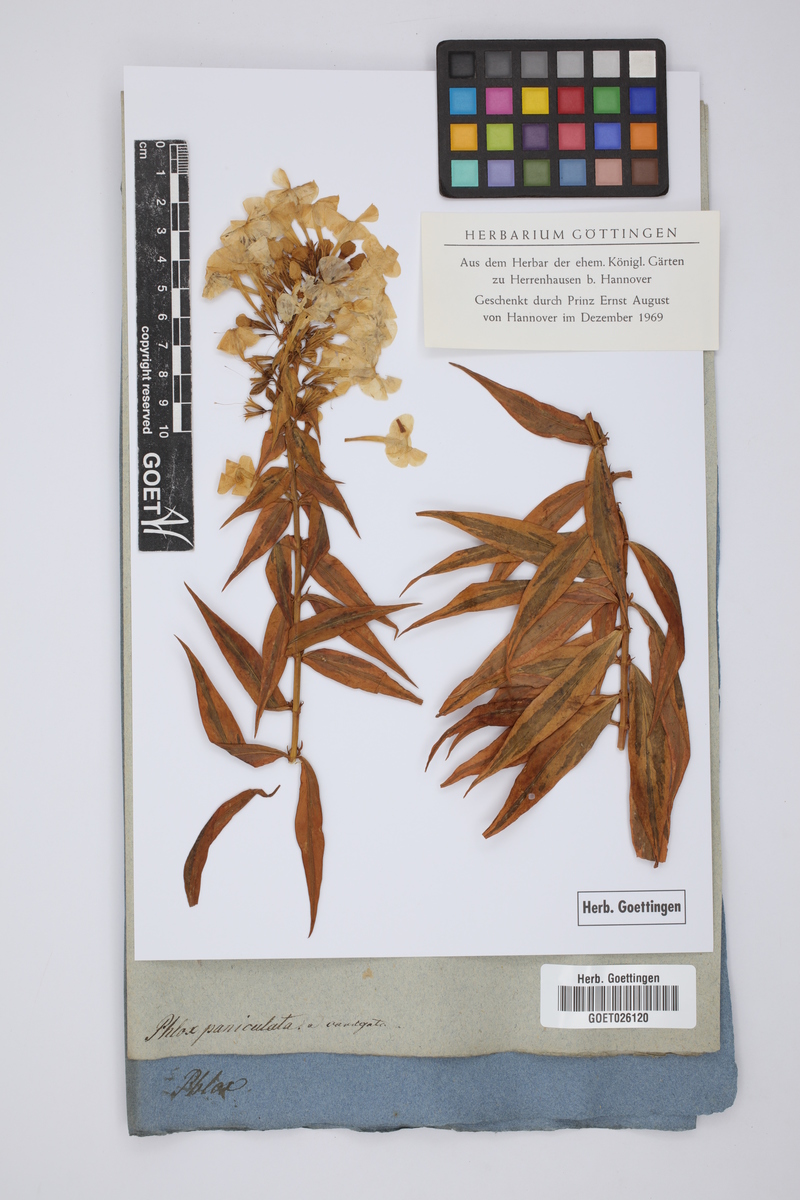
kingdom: Plantae
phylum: Tracheophyta
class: Magnoliopsida
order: Ericales
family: Polemoniaceae
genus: Phlox
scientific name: Phlox paniculata
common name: Fall phlox
